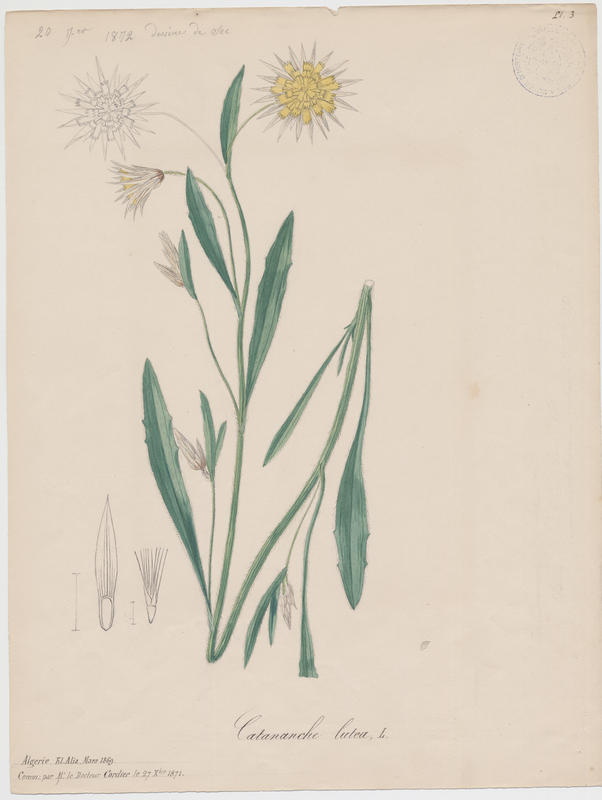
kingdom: Plantae
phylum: Tracheophyta
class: Magnoliopsida
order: Asterales
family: Asteraceae
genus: Catananche
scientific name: Catananche lutea
